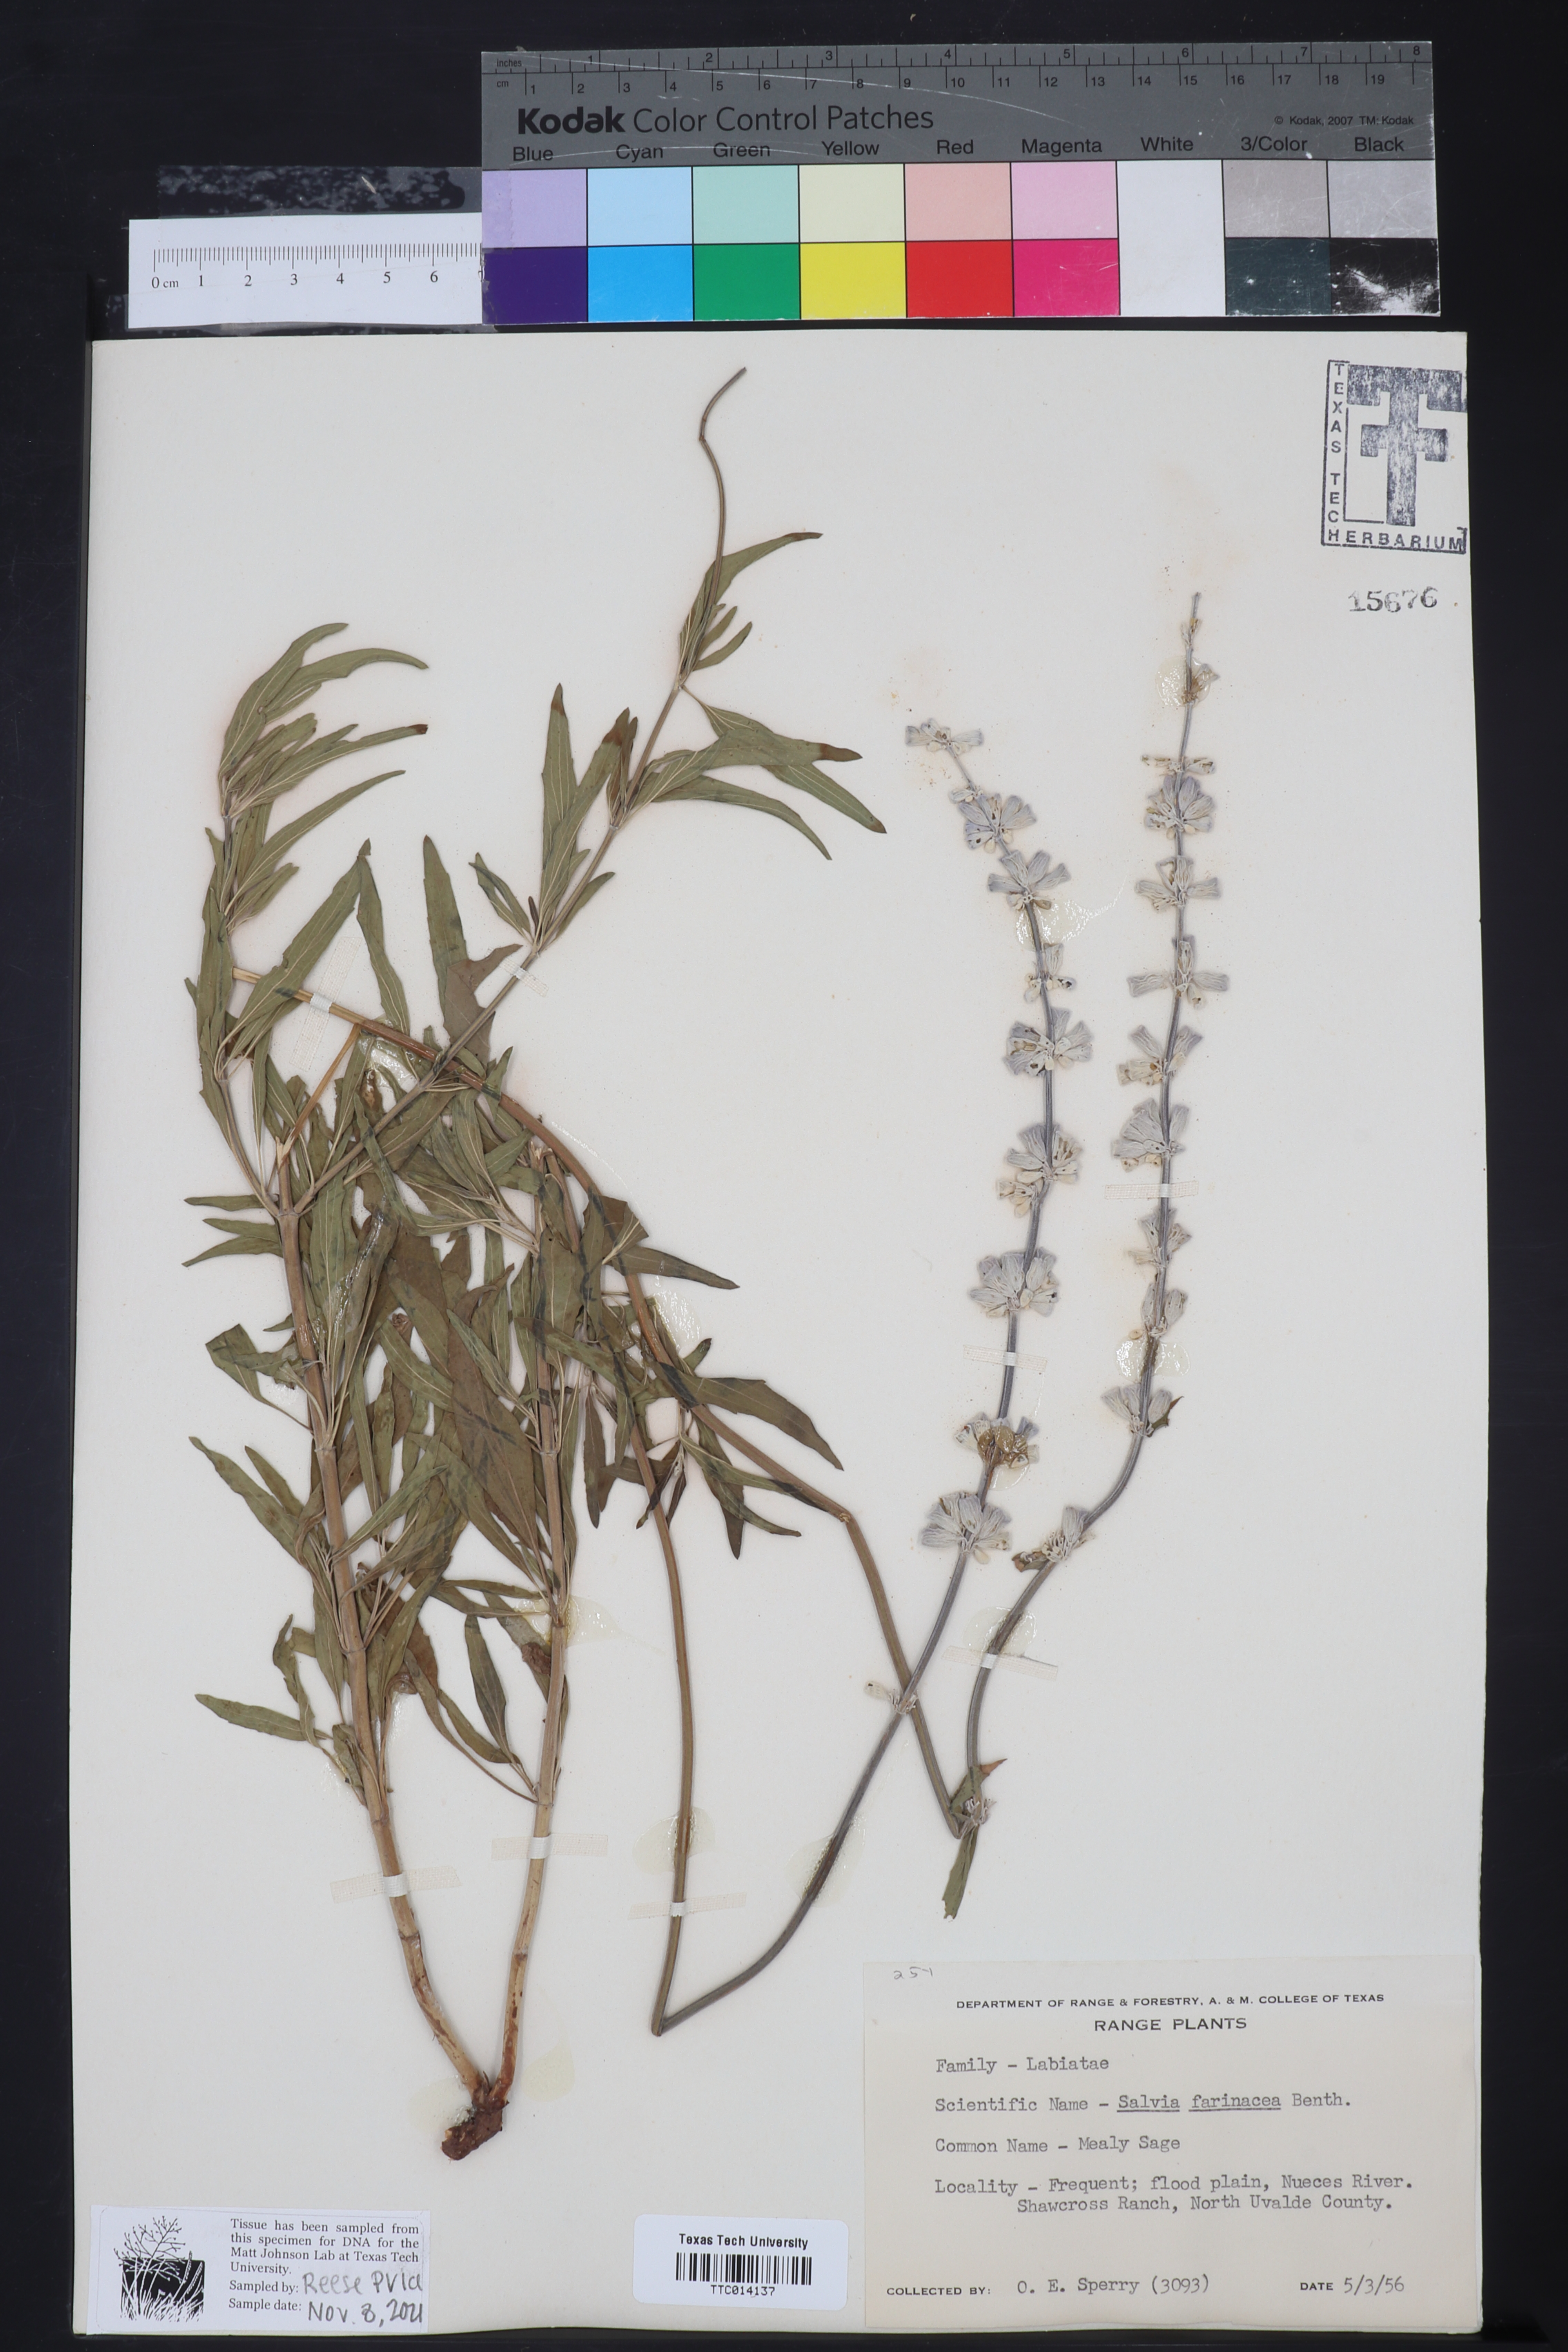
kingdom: Plantae
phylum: Tracheophyta
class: Magnoliopsida
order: Lamiales
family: Lamiaceae
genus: Salvia
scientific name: Salvia farinacea
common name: Mealy sage
